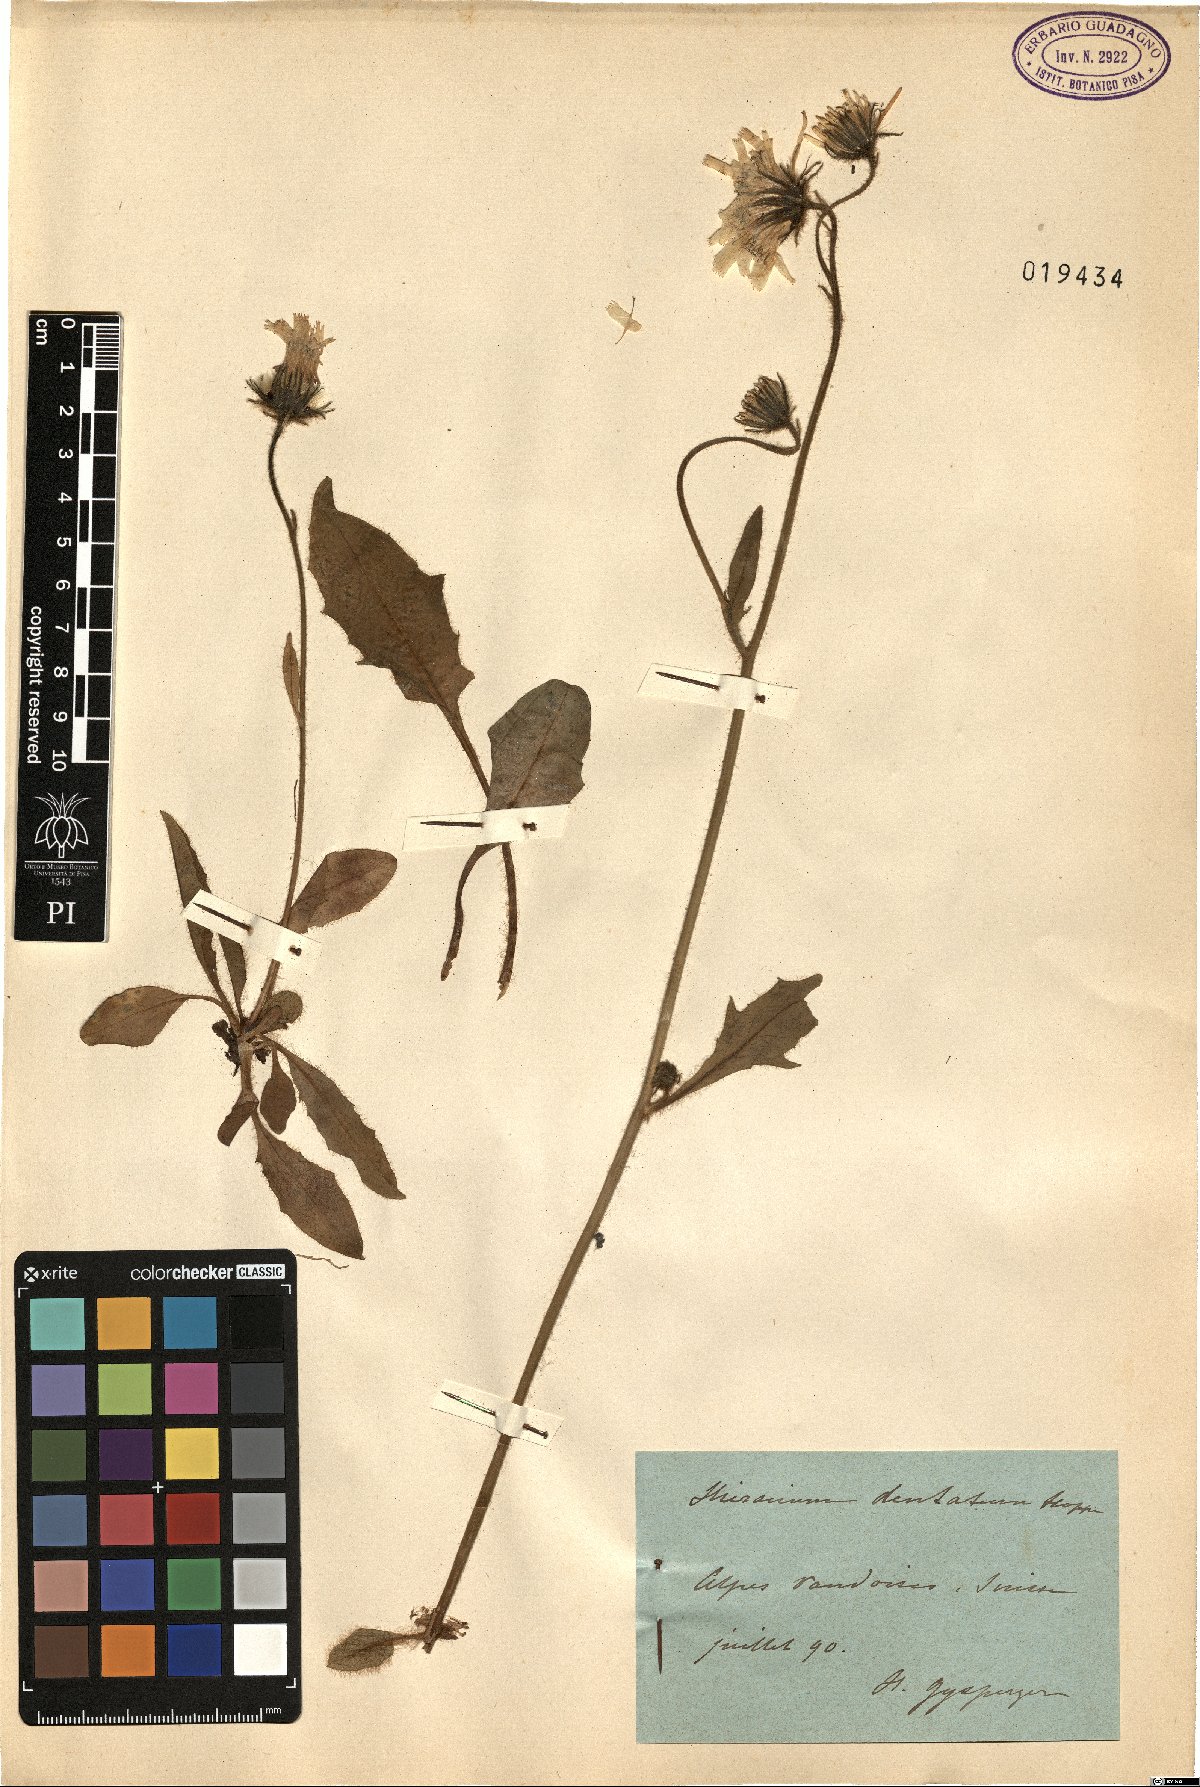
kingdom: Plantae
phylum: Tracheophyta
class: Magnoliopsida
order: Asterales
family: Asteraceae
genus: Hieracium
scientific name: Hieracium dentatum
